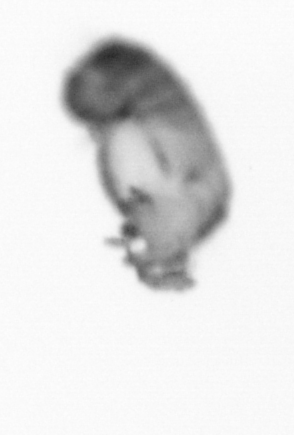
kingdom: Animalia
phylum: Annelida
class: Polychaeta
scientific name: Polychaeta
